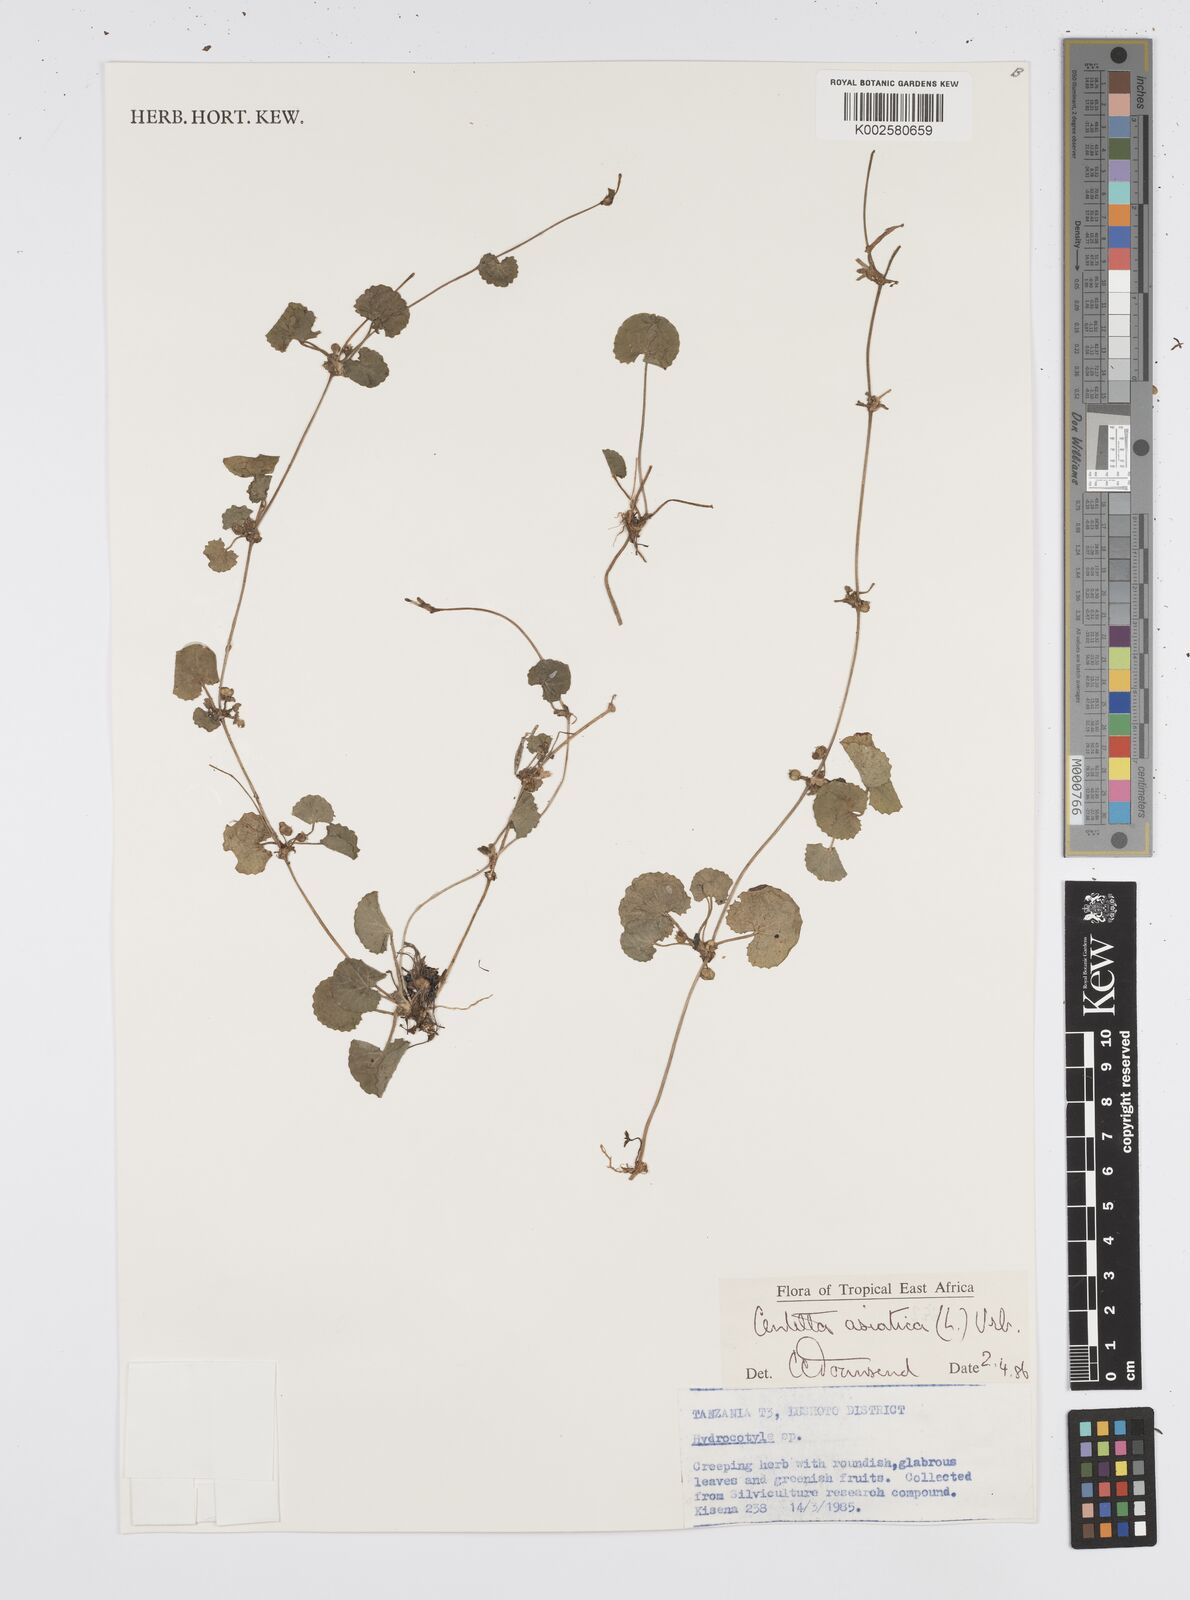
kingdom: Plantae
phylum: Tracheophyta
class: Magnoliopsida
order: Apiales
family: Apiaceae
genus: Centella
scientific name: Centella asiatica
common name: Spadeleaf
